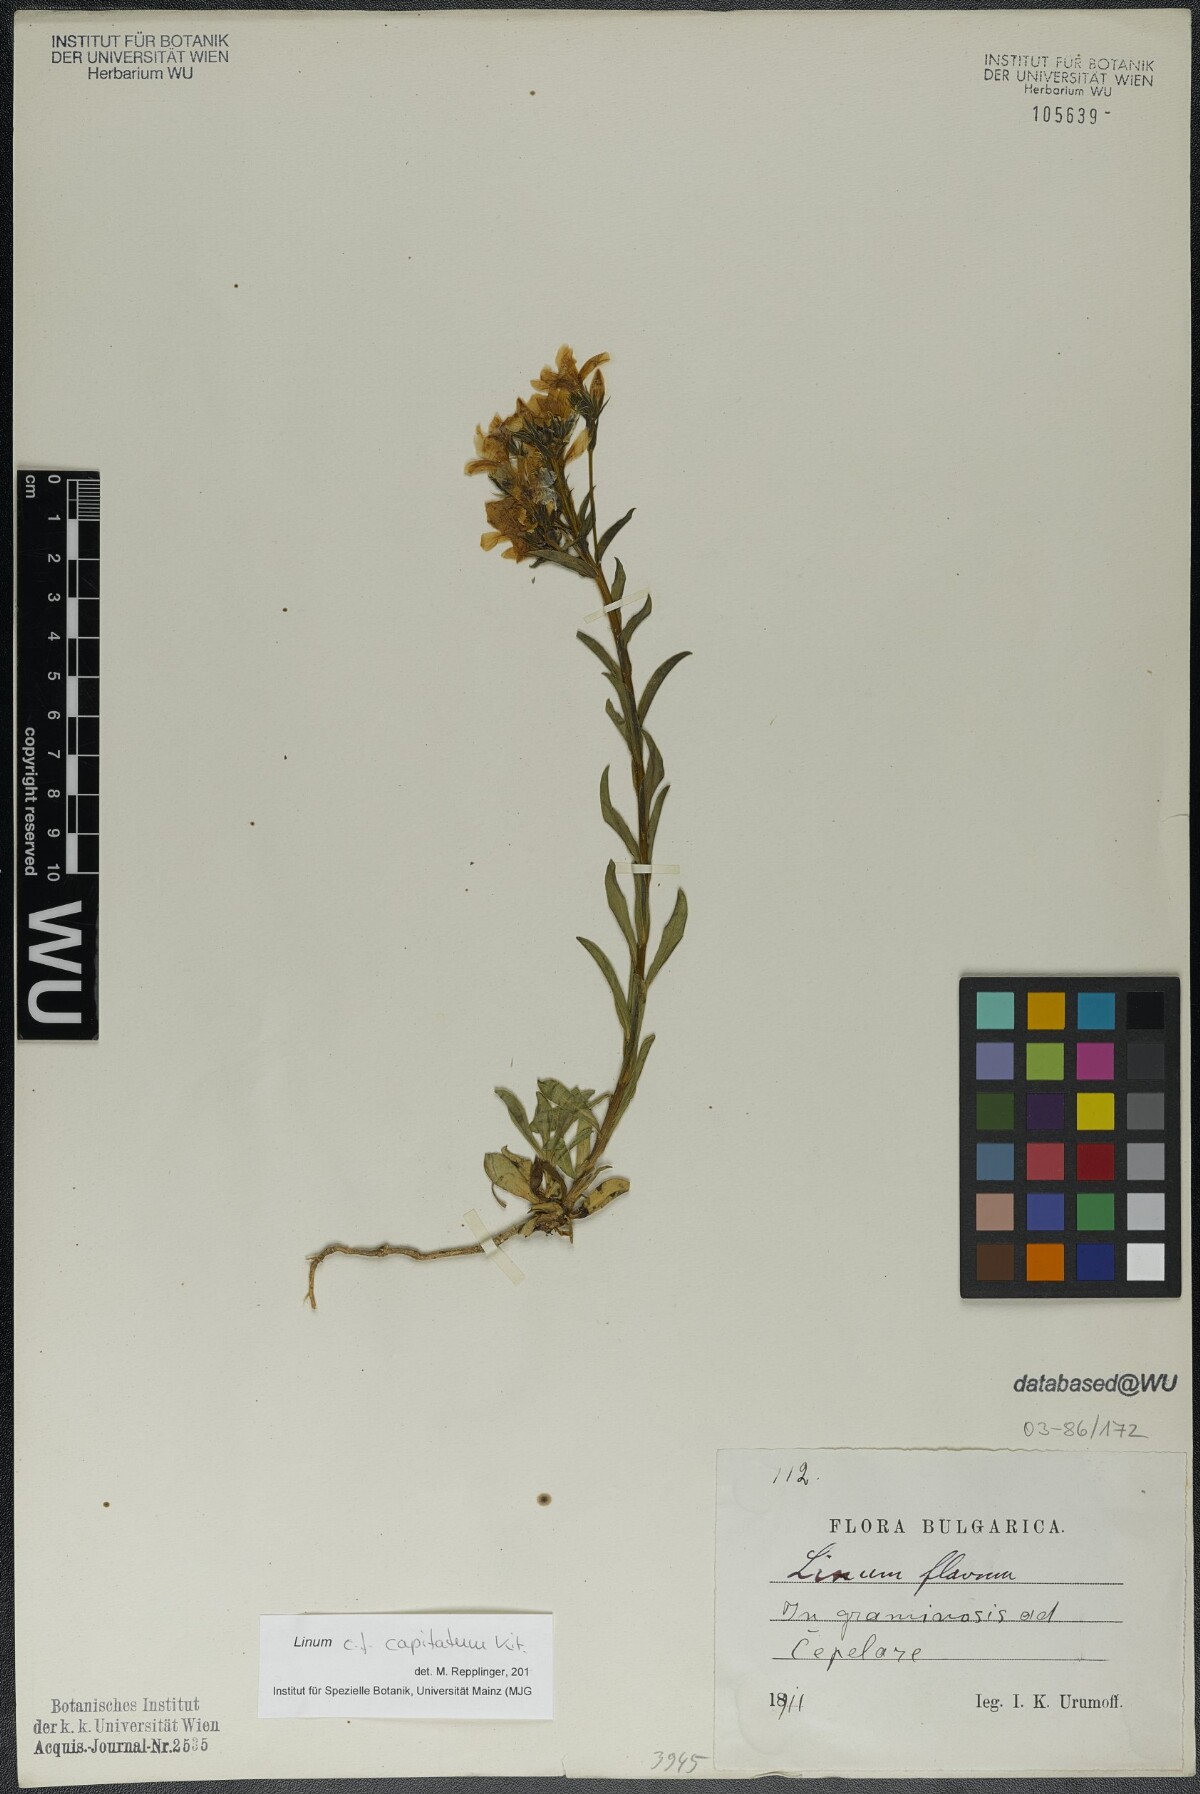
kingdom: Plantae
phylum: Tracheophyta
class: Magnoliopsida
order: Malpighiales
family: Linaceae
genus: Linum
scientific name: Linum capitatum
